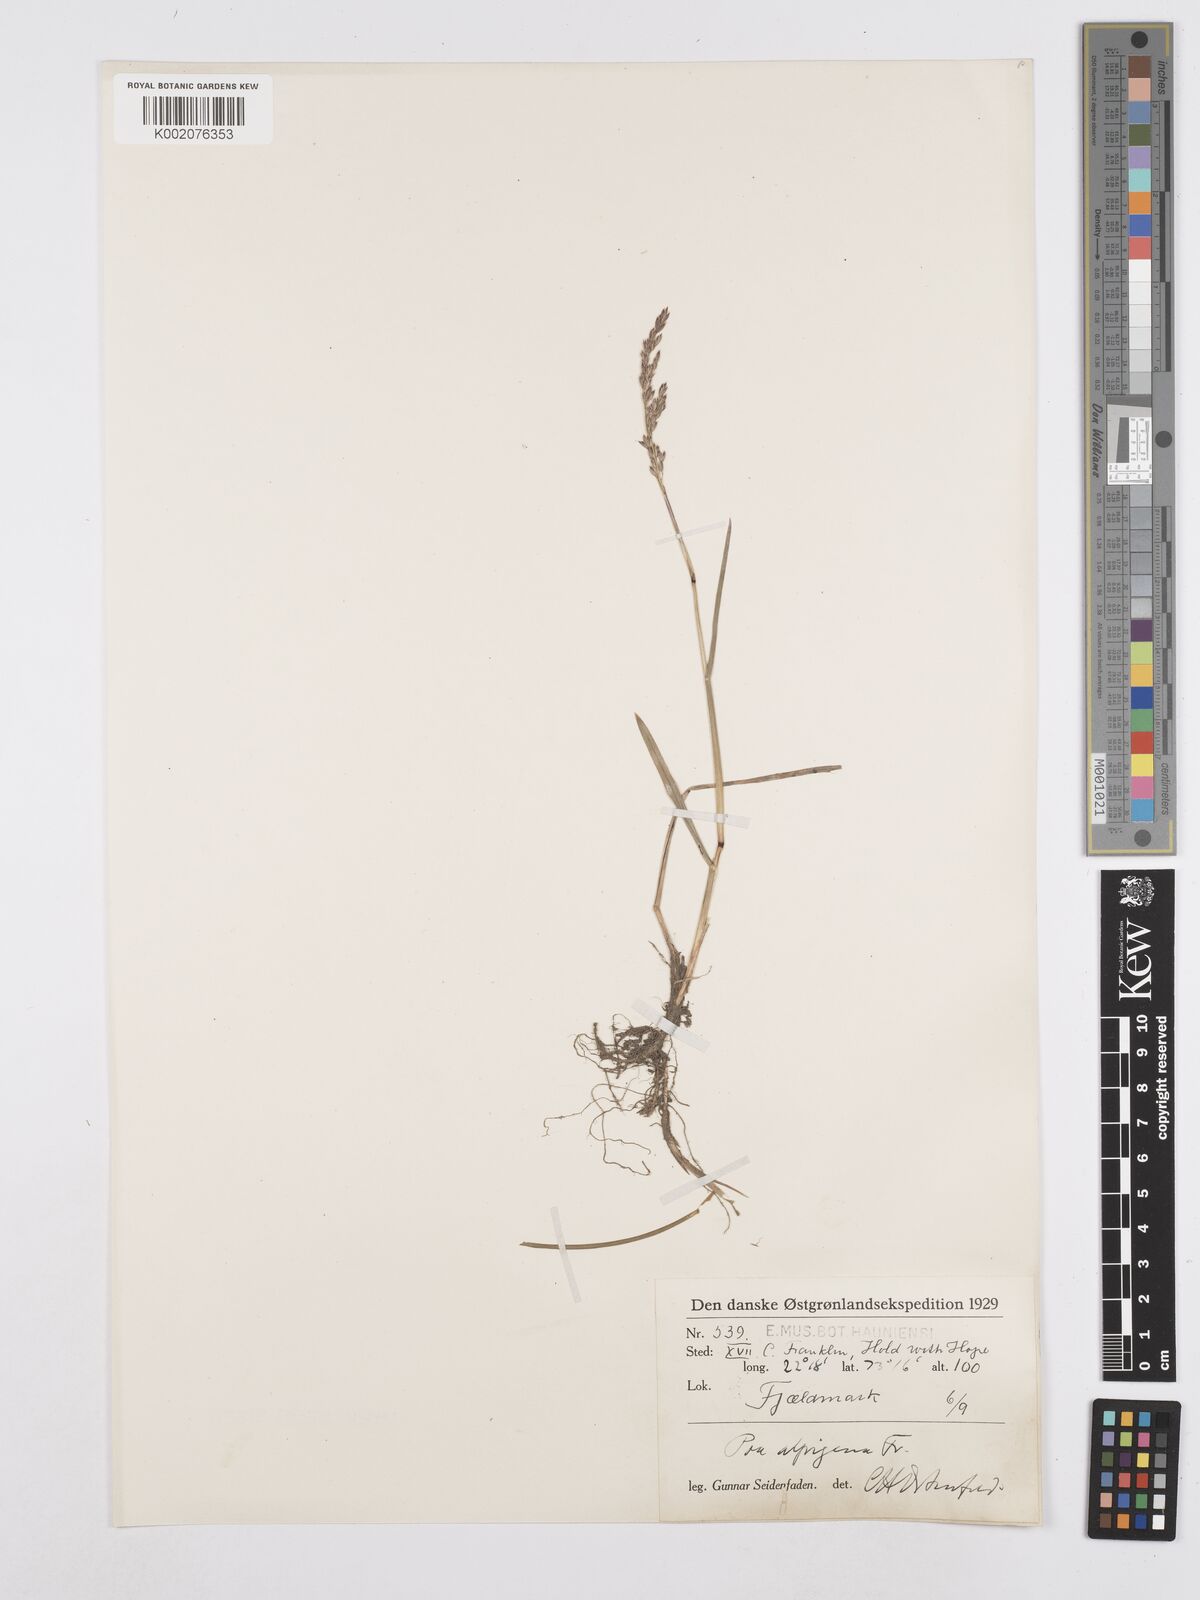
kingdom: Plantae
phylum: Tracheophyta
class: Liliopsida
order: Poales
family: Poaceae
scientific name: Poaceae
